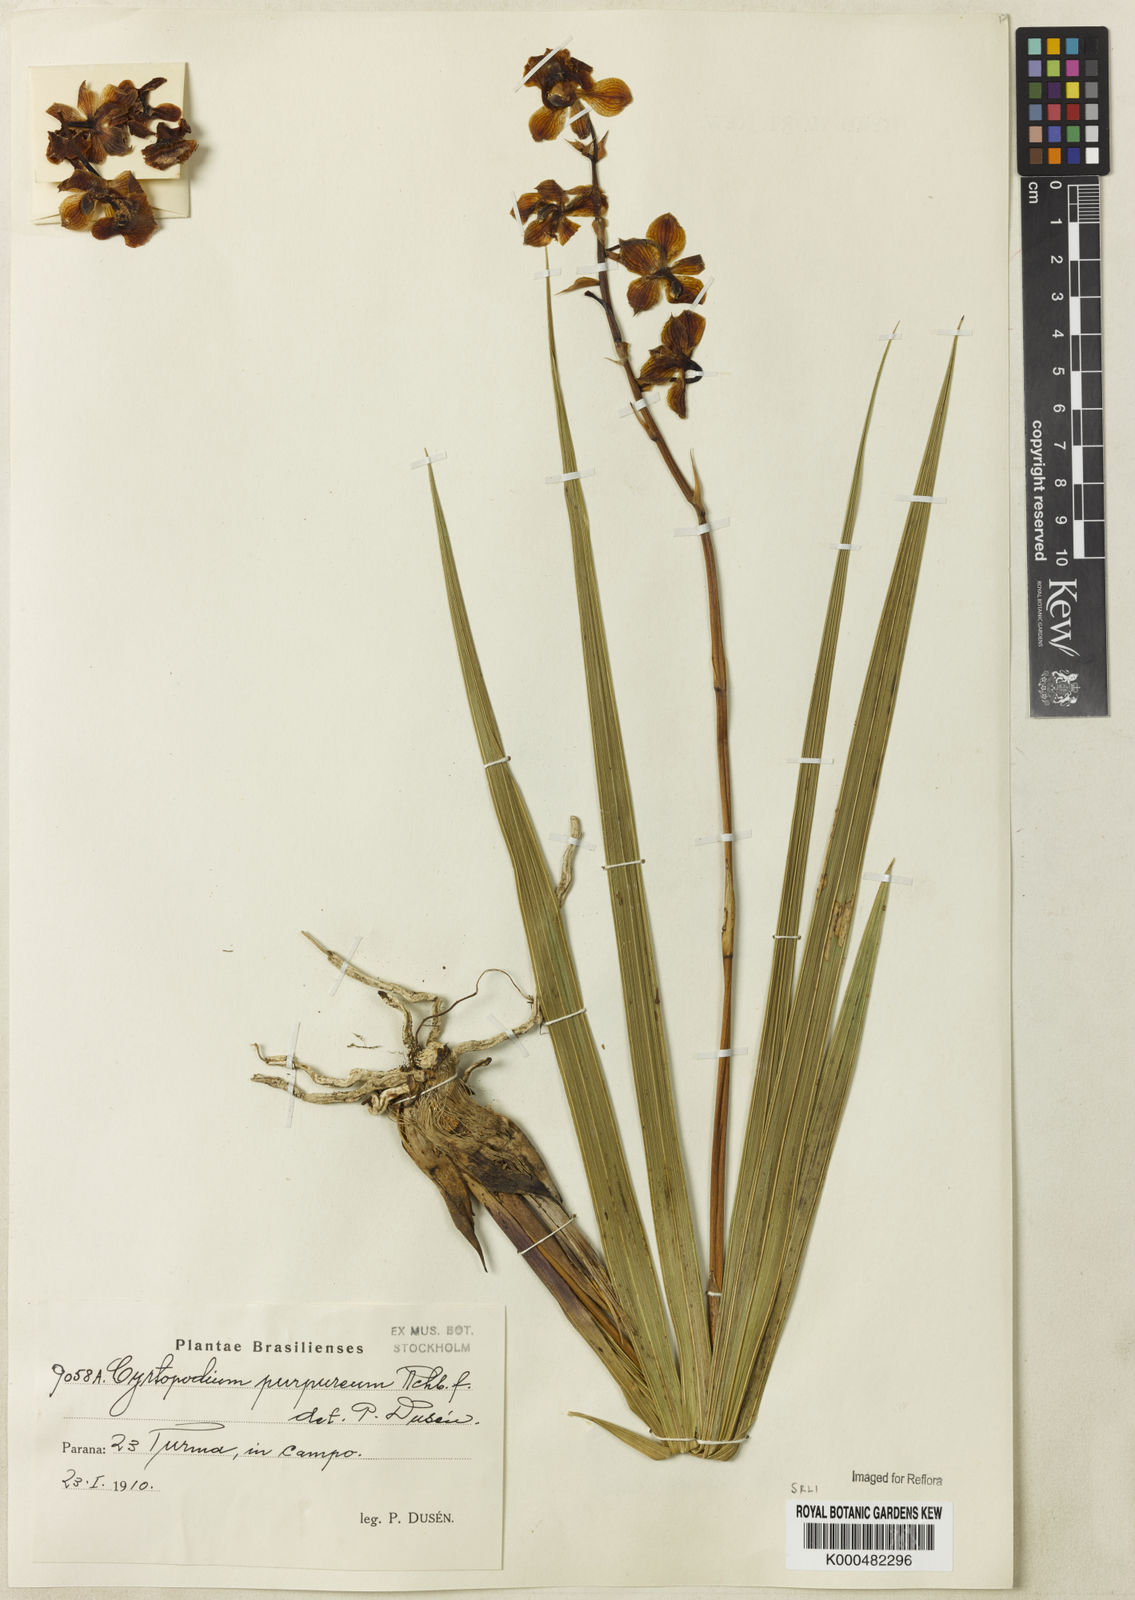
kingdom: Plantae
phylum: Tracheophyta
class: Liliopsida
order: Asparagales
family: Orchidaceae
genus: Cyrtopodium
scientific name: Cyrtopodium brandonianum
